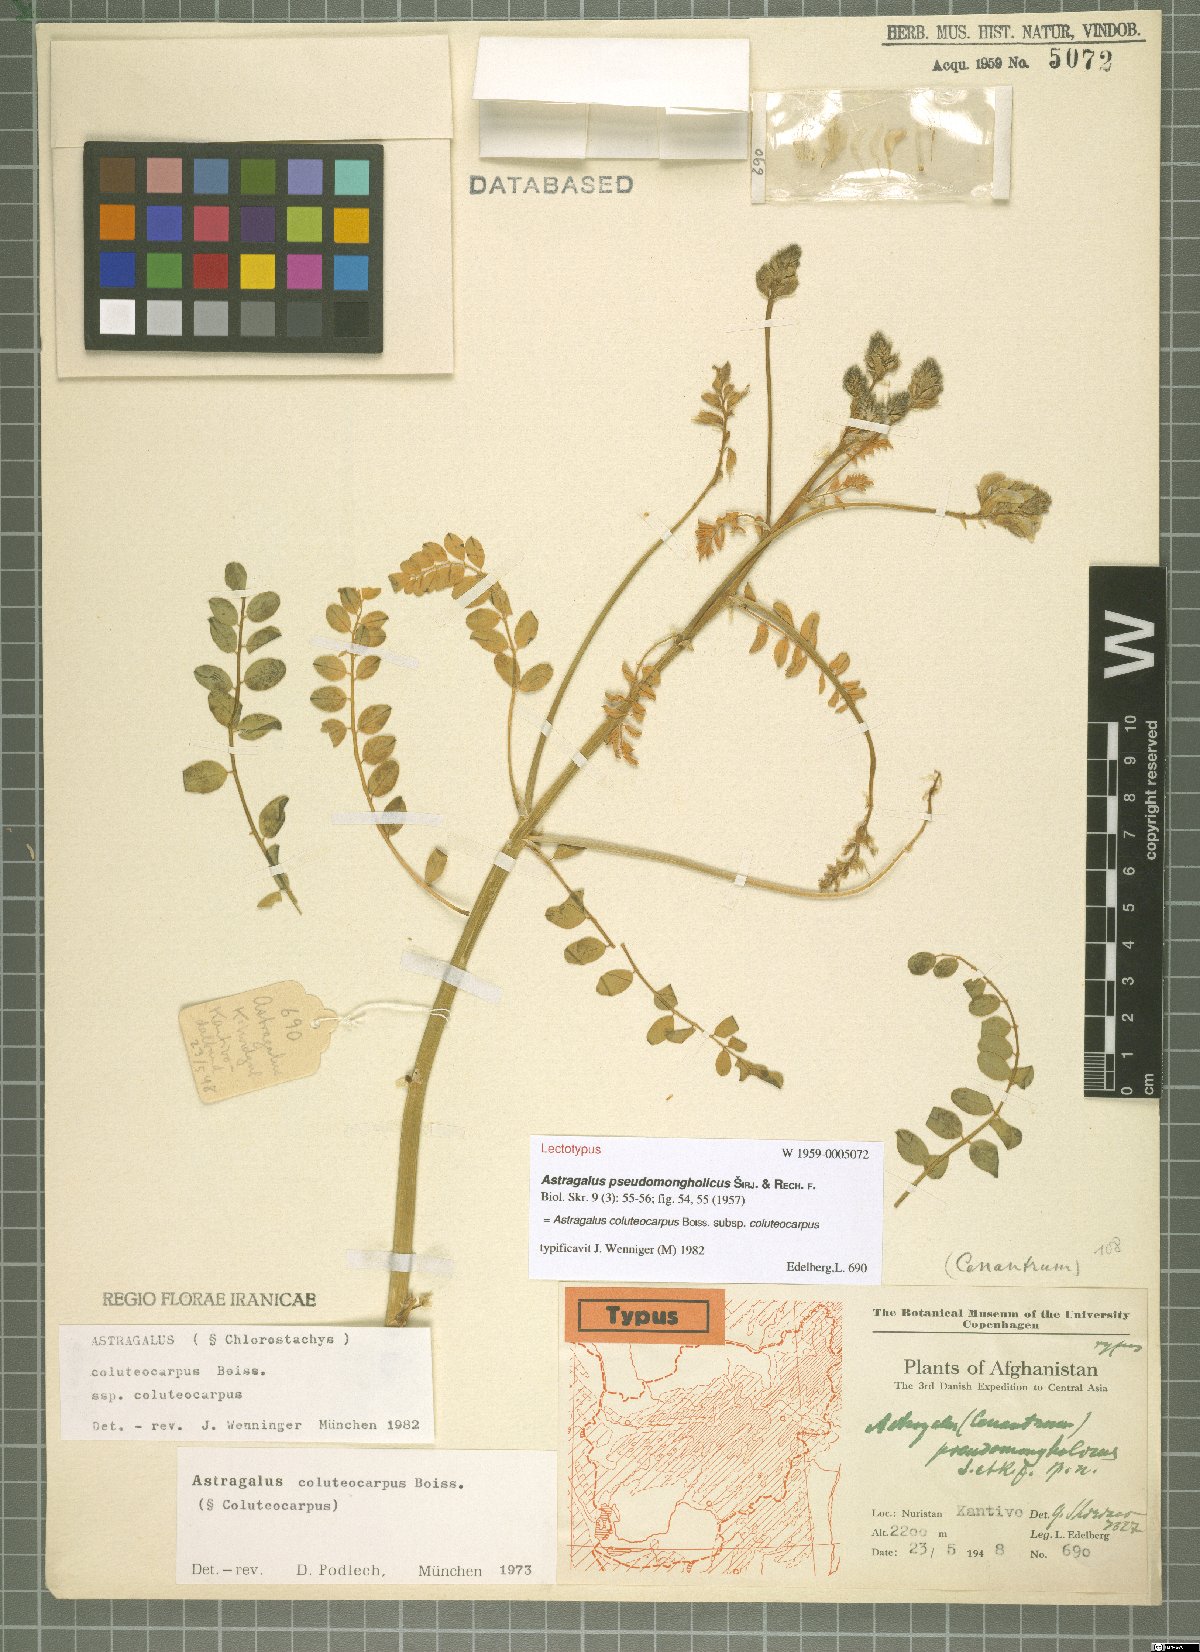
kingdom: Plantae
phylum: Tracheophyta
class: Magnoliopsida
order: Fabales
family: Fabaceae
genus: Astragalus
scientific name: Astragalus coluteocarpus
